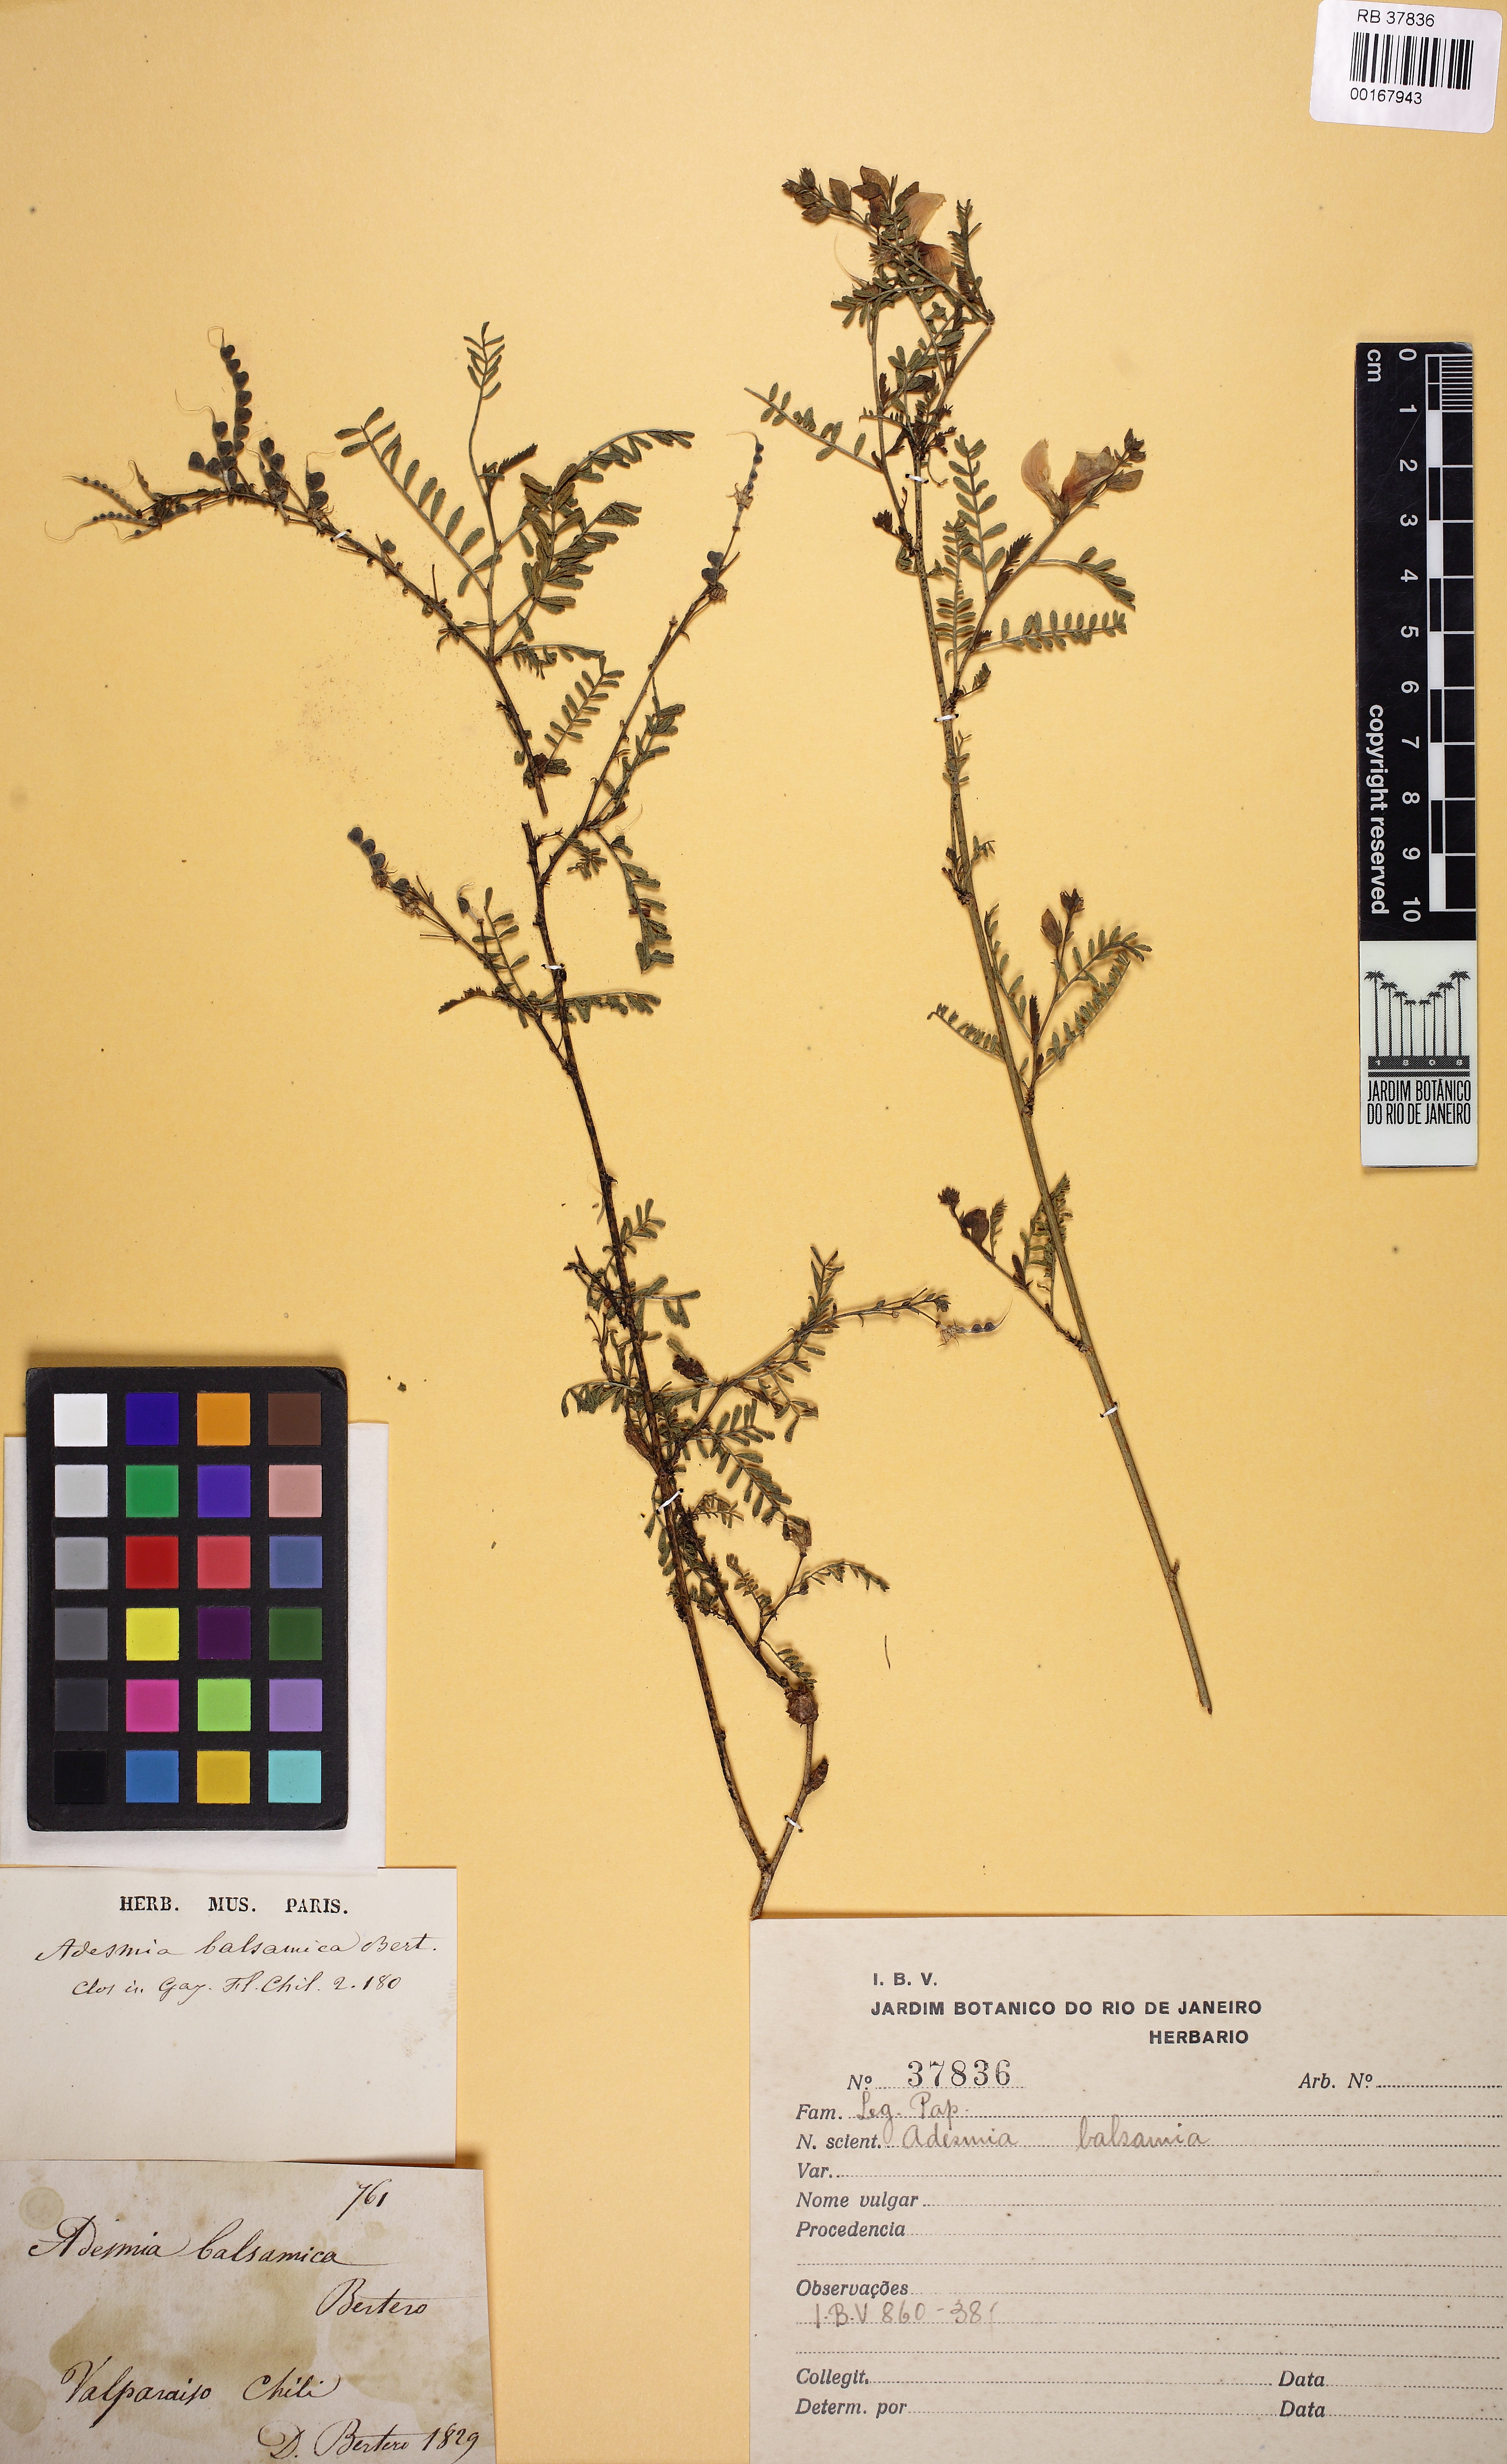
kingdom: Plantae
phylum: Tracheophyta
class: Magnoliopsida
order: Fabales
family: Fabaceae
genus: Adesmia
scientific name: Adesmia balsamica
